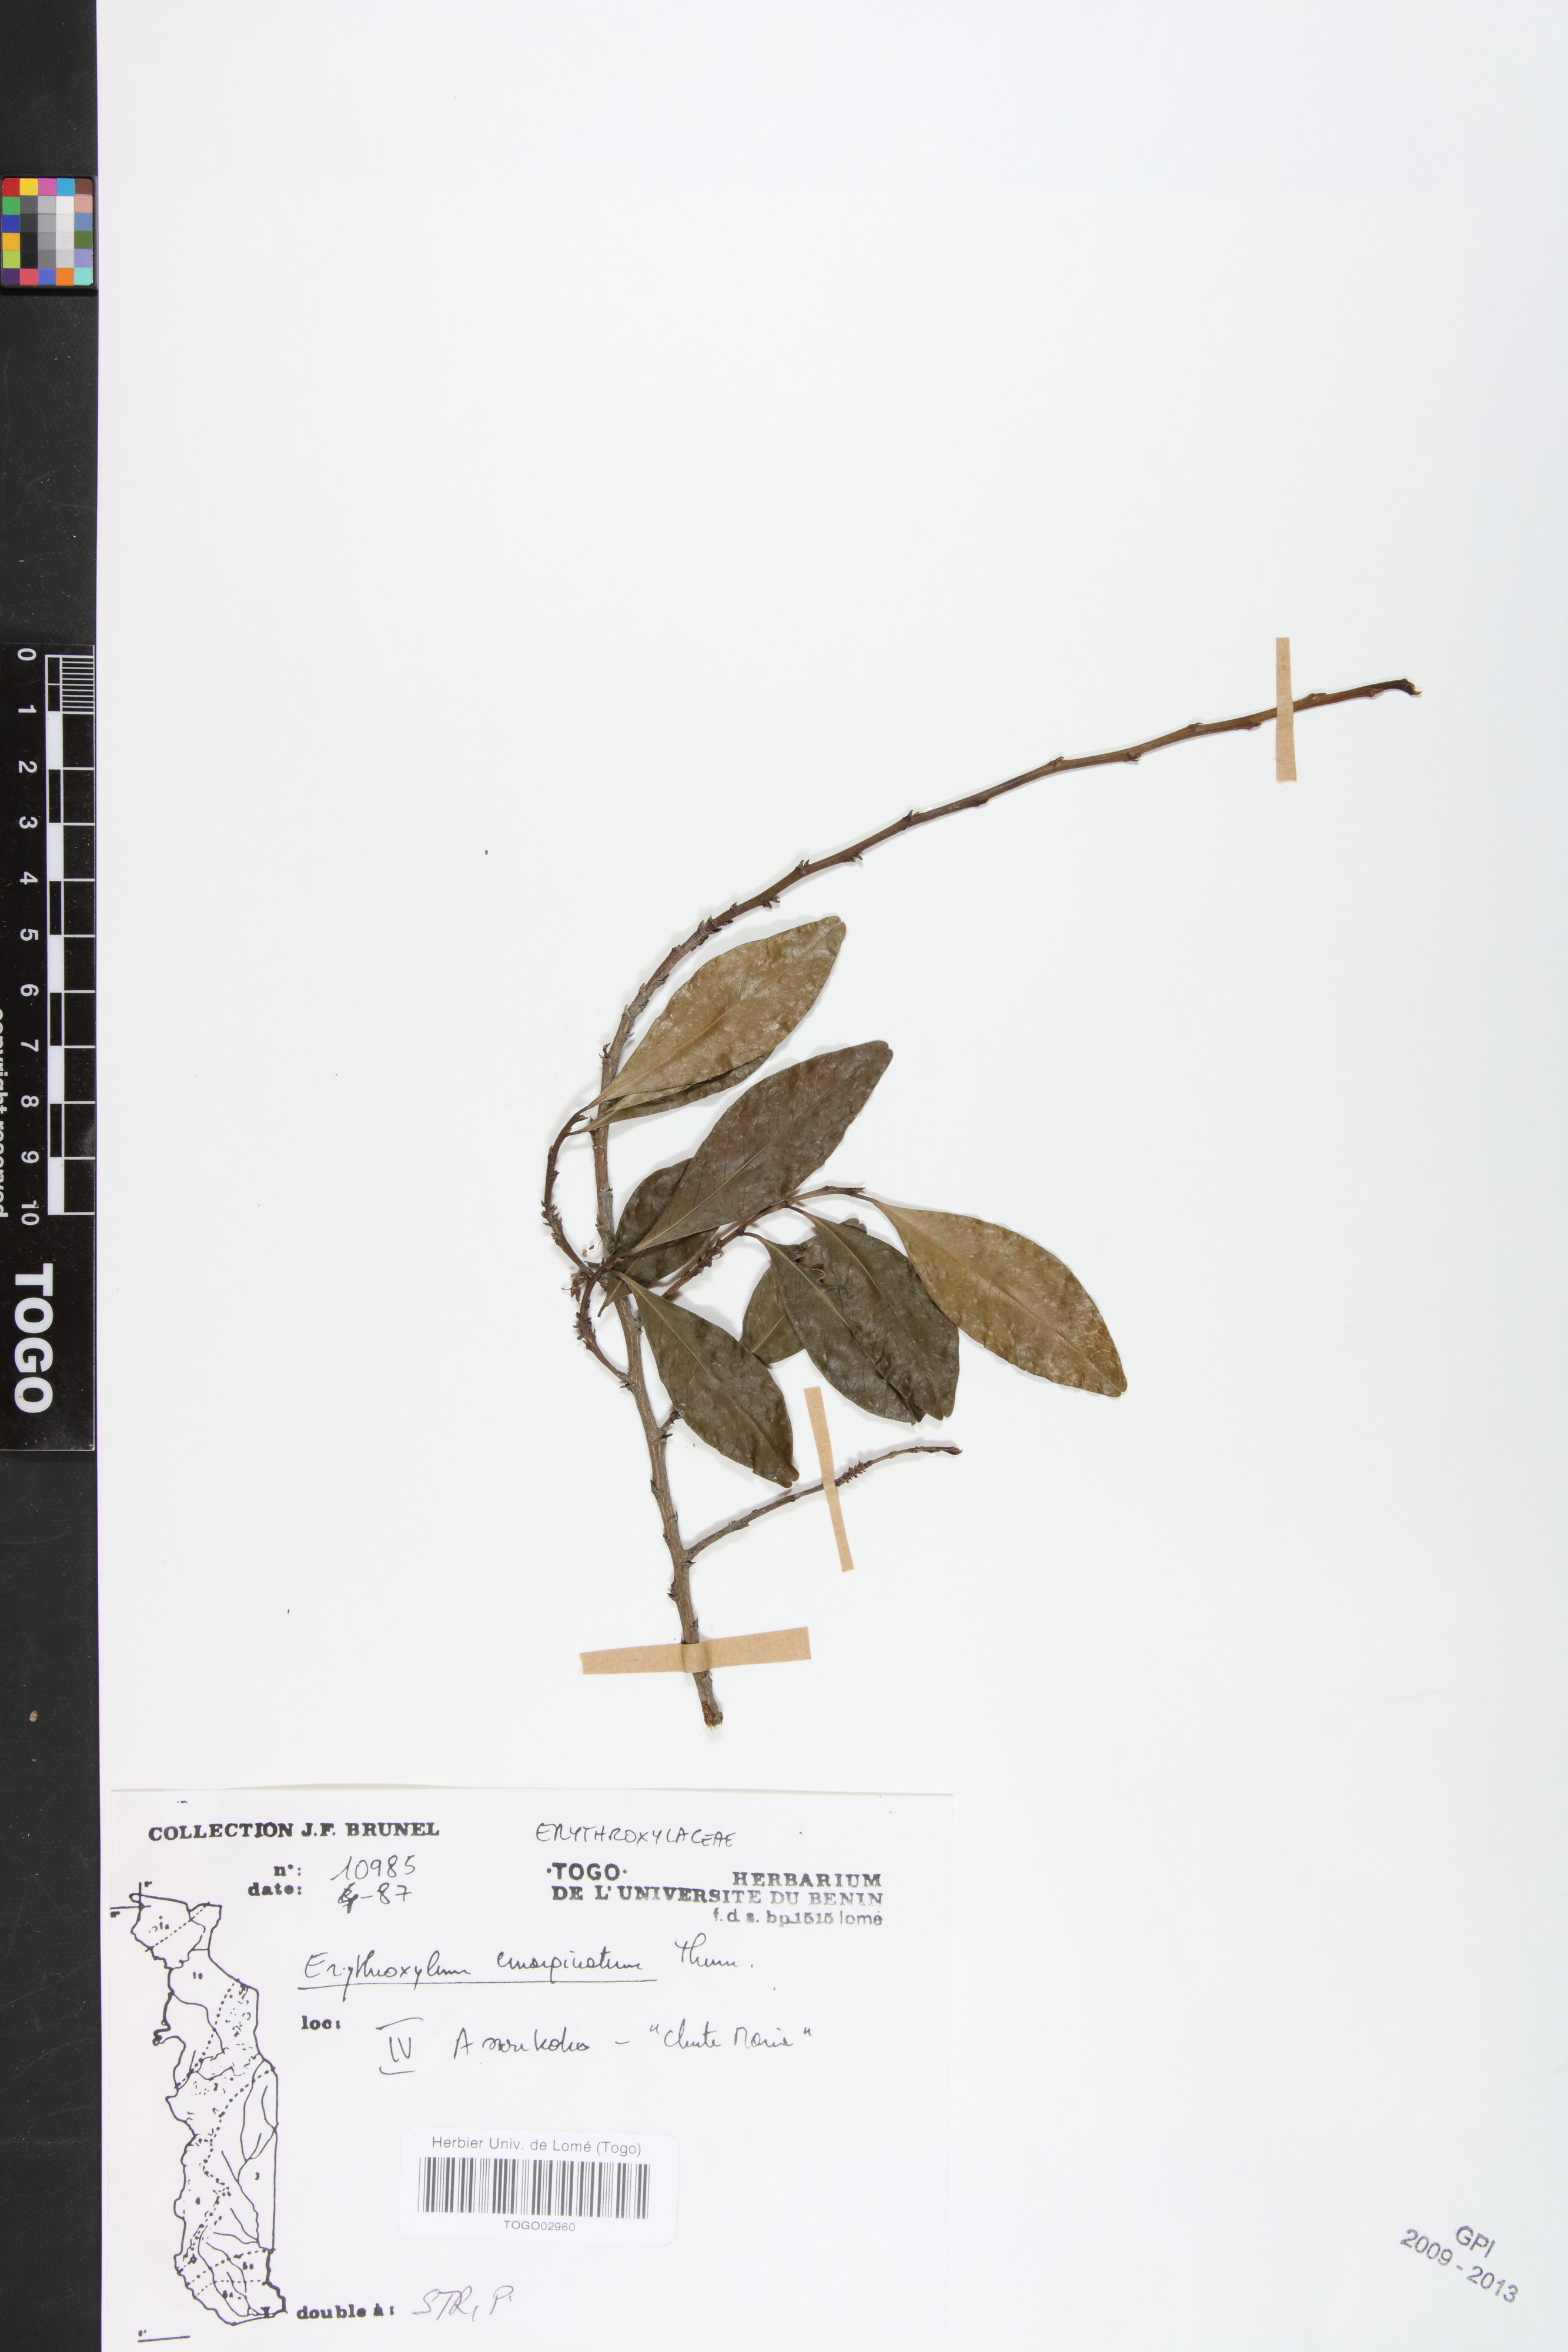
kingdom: Plantae
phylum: Tracheophyta
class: Magnoliopsida
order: Malpighiales
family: Erythroxylaceae
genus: Erythroxylum
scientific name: Erythroxylum emarginatum
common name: African coca-tree
